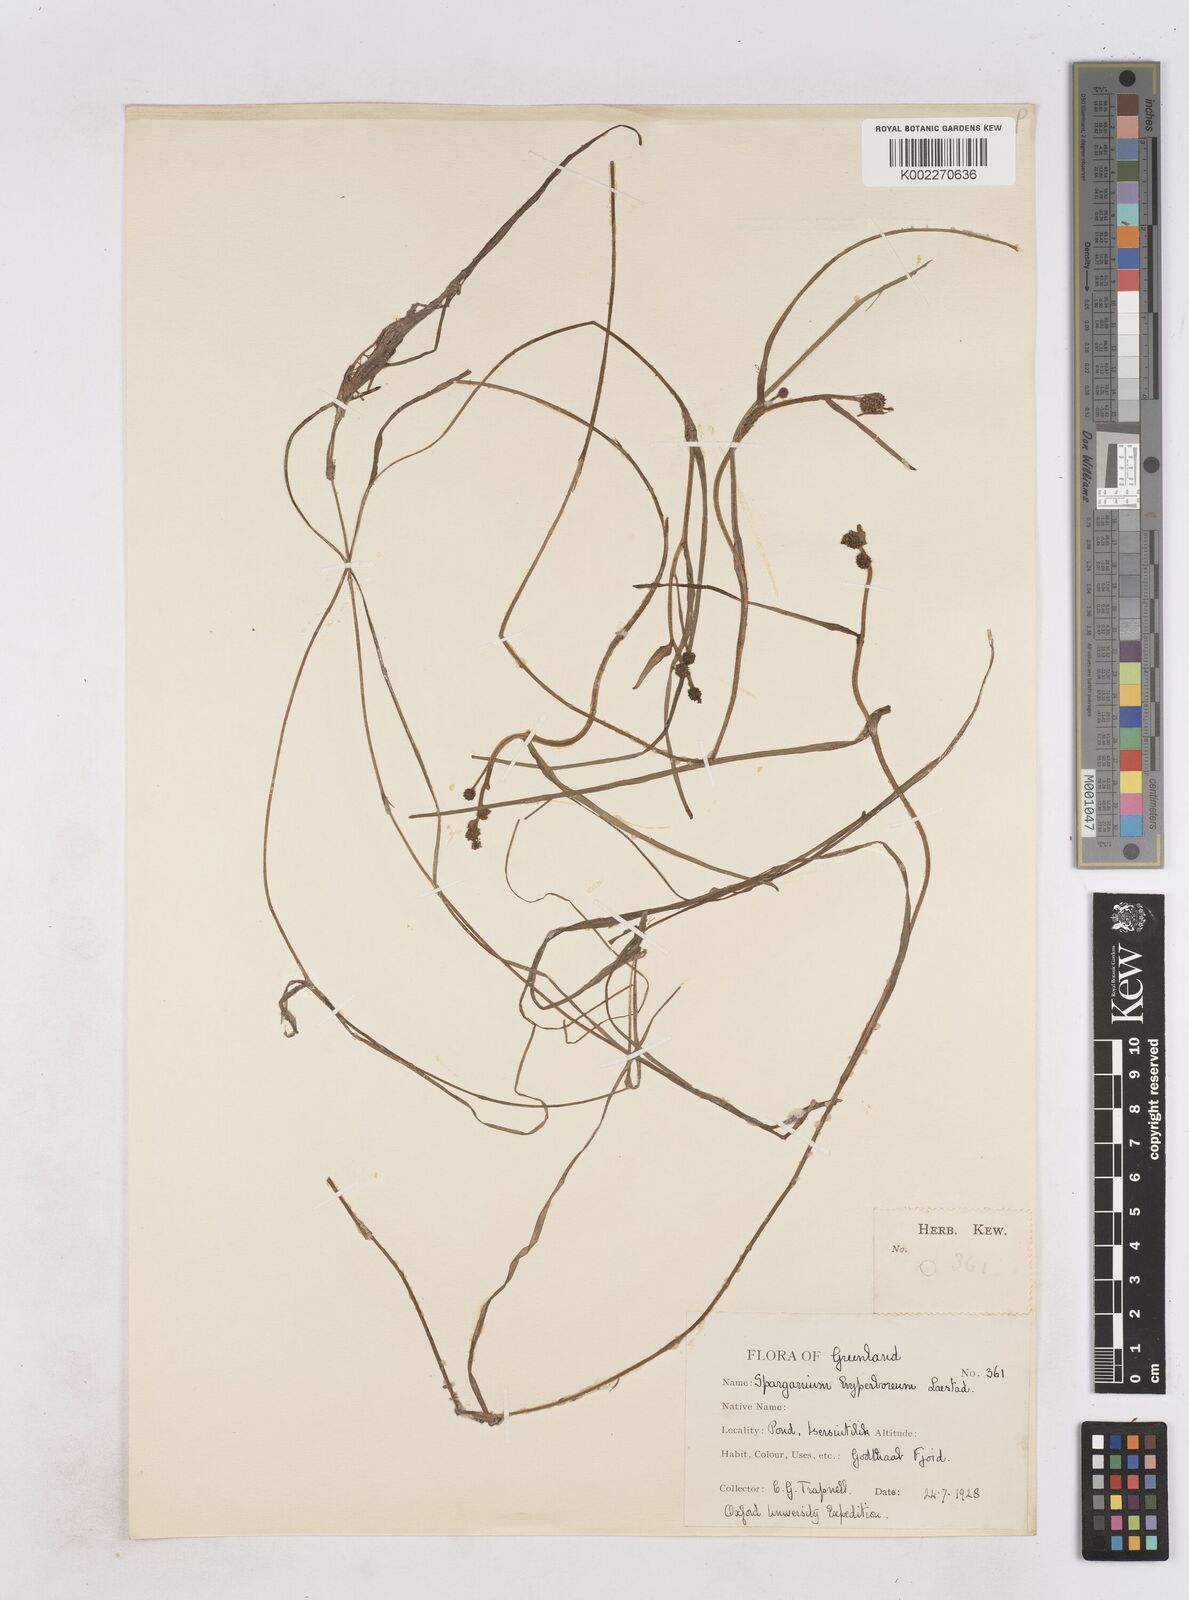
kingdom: Plantae
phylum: Tracheophyta
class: Liliopsida
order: Poales
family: Typhaceae
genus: Sparganium
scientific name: Sparganium hyperboreum
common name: Arctic burreed
